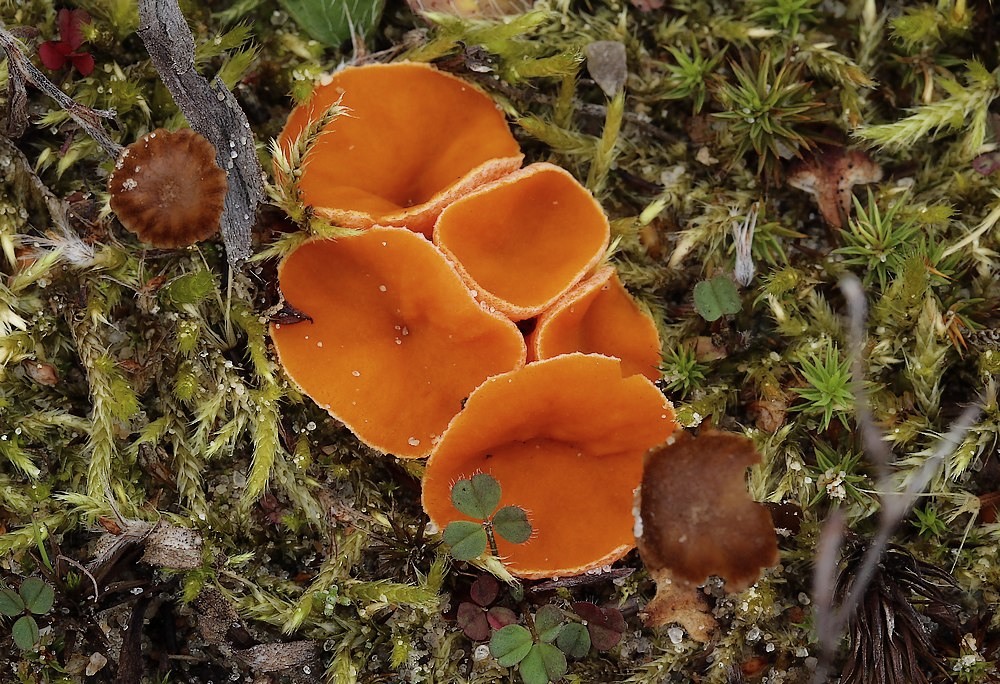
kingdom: Fungi
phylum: Ascomycota
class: Pezizomycetes
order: Pezizales
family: Pyronemataceae
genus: Neottiella
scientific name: Neottiella rutilans
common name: jomfruhår-mosbæger
